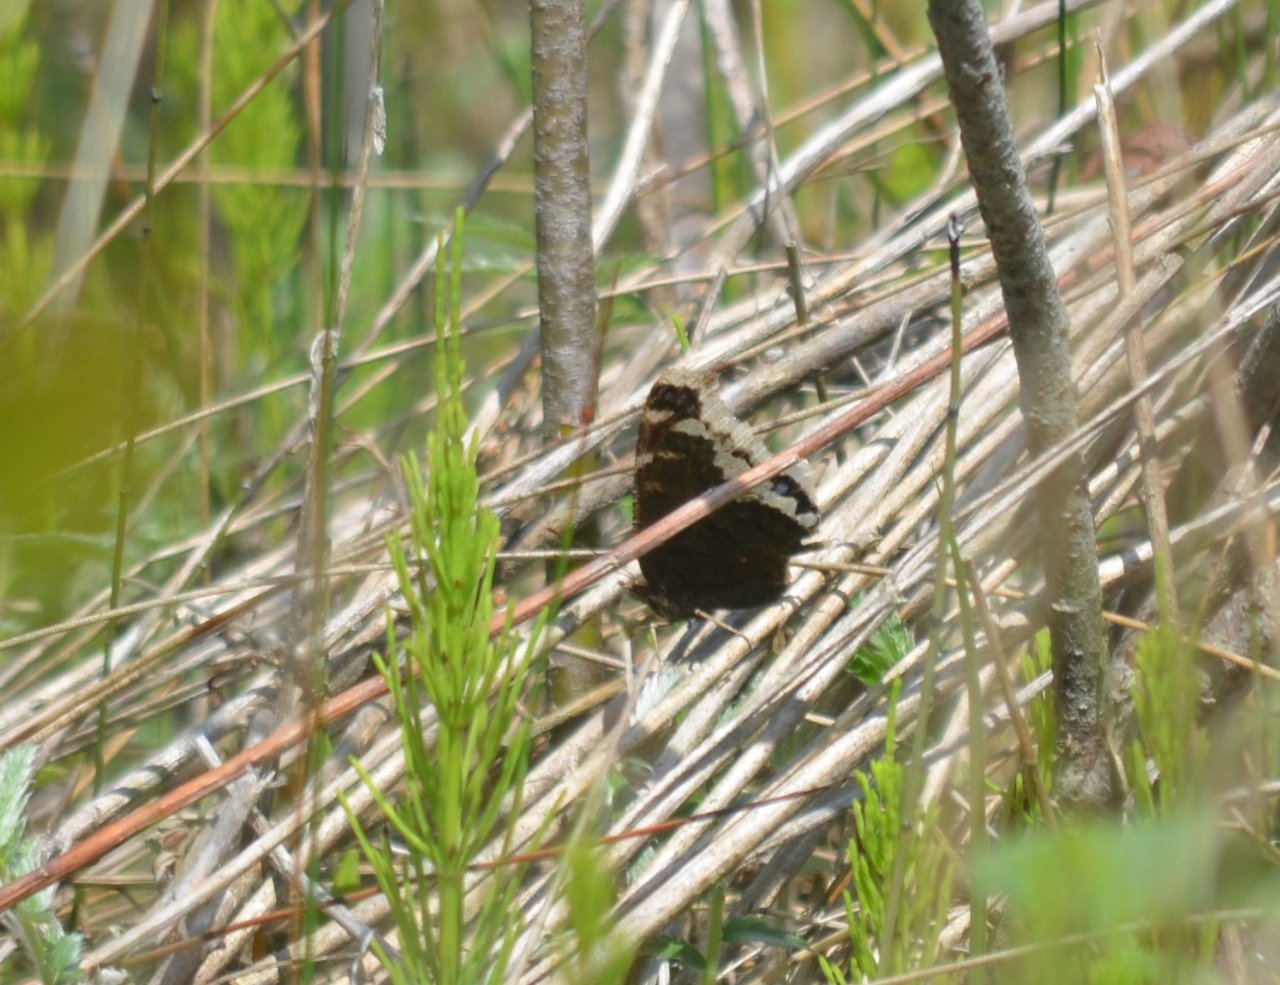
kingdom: Animalia
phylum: Arthropoda
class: Insecta
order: Lepidoptera
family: Nymphalidae
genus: Nymphalis
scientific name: Nymphalis antiopa
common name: Mourning Cloak
